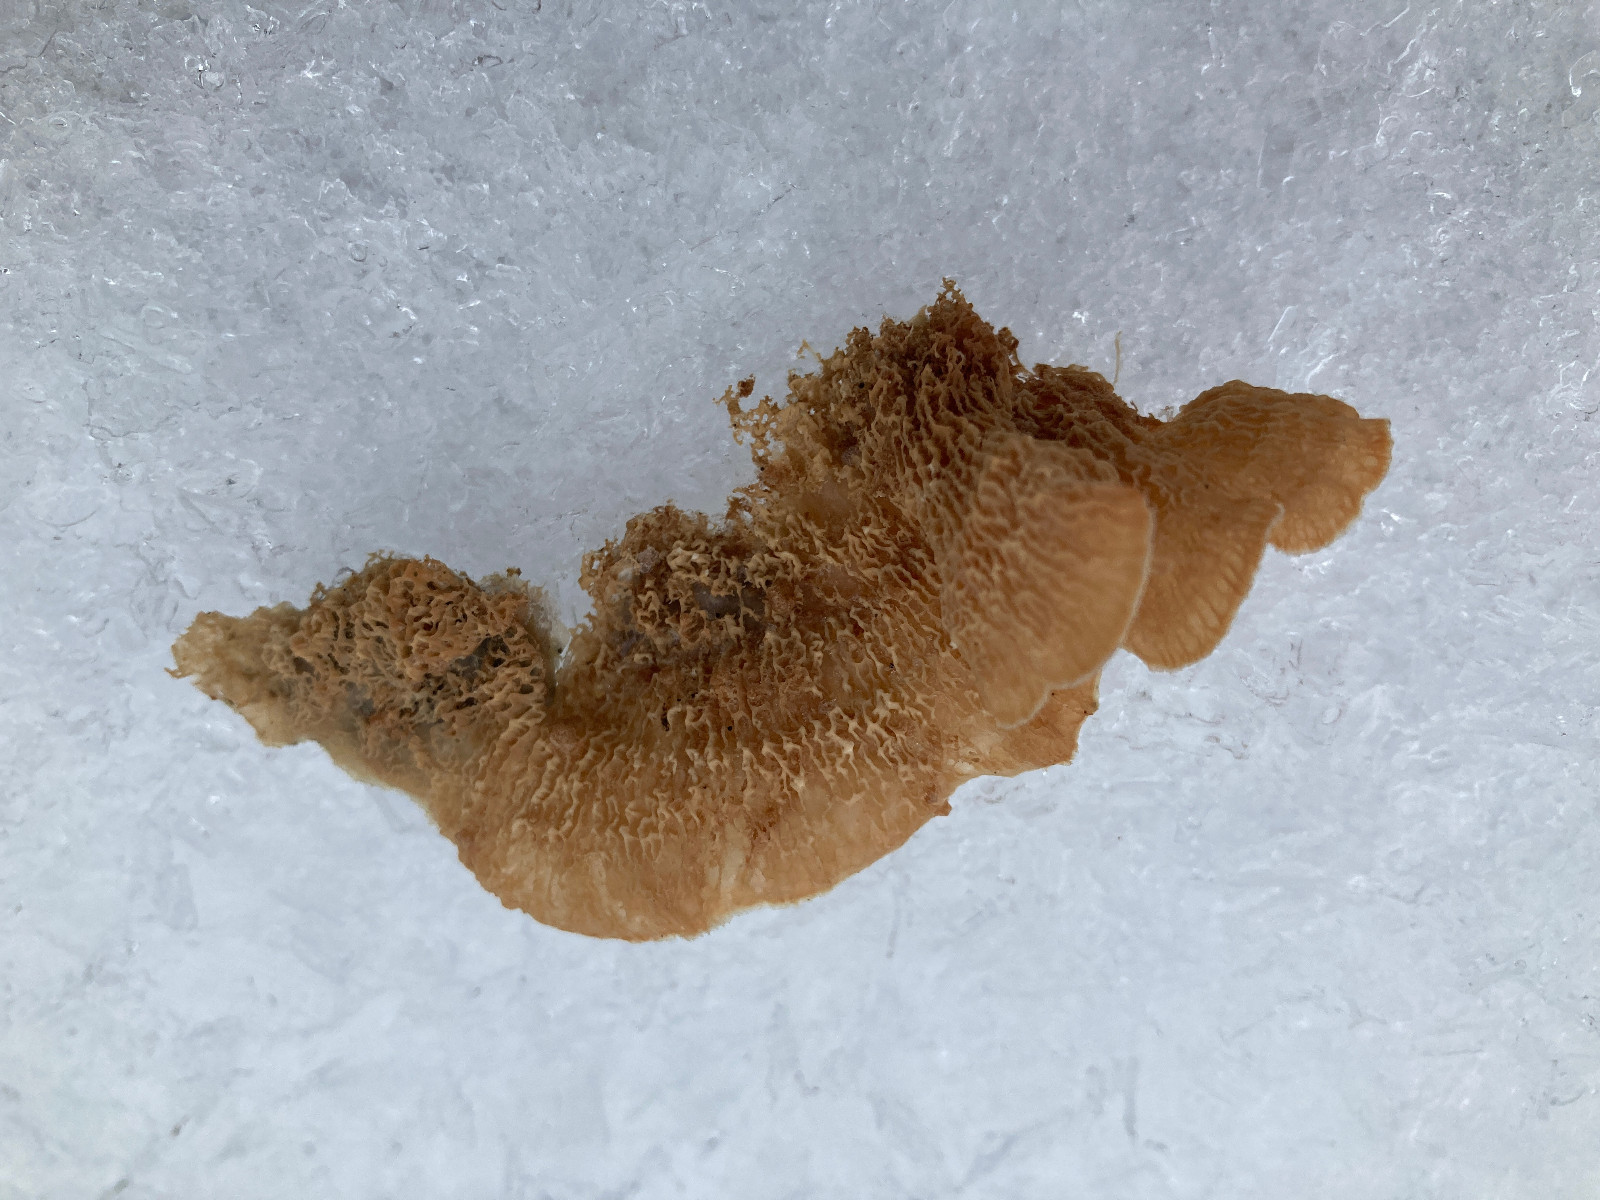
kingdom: Fungi
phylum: Basidiomycota
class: Agaricomycetes
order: Polyporales
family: Meruliaceae
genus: Phlebia
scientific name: Phlebia tremellosa
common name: bævrende åresvamp
